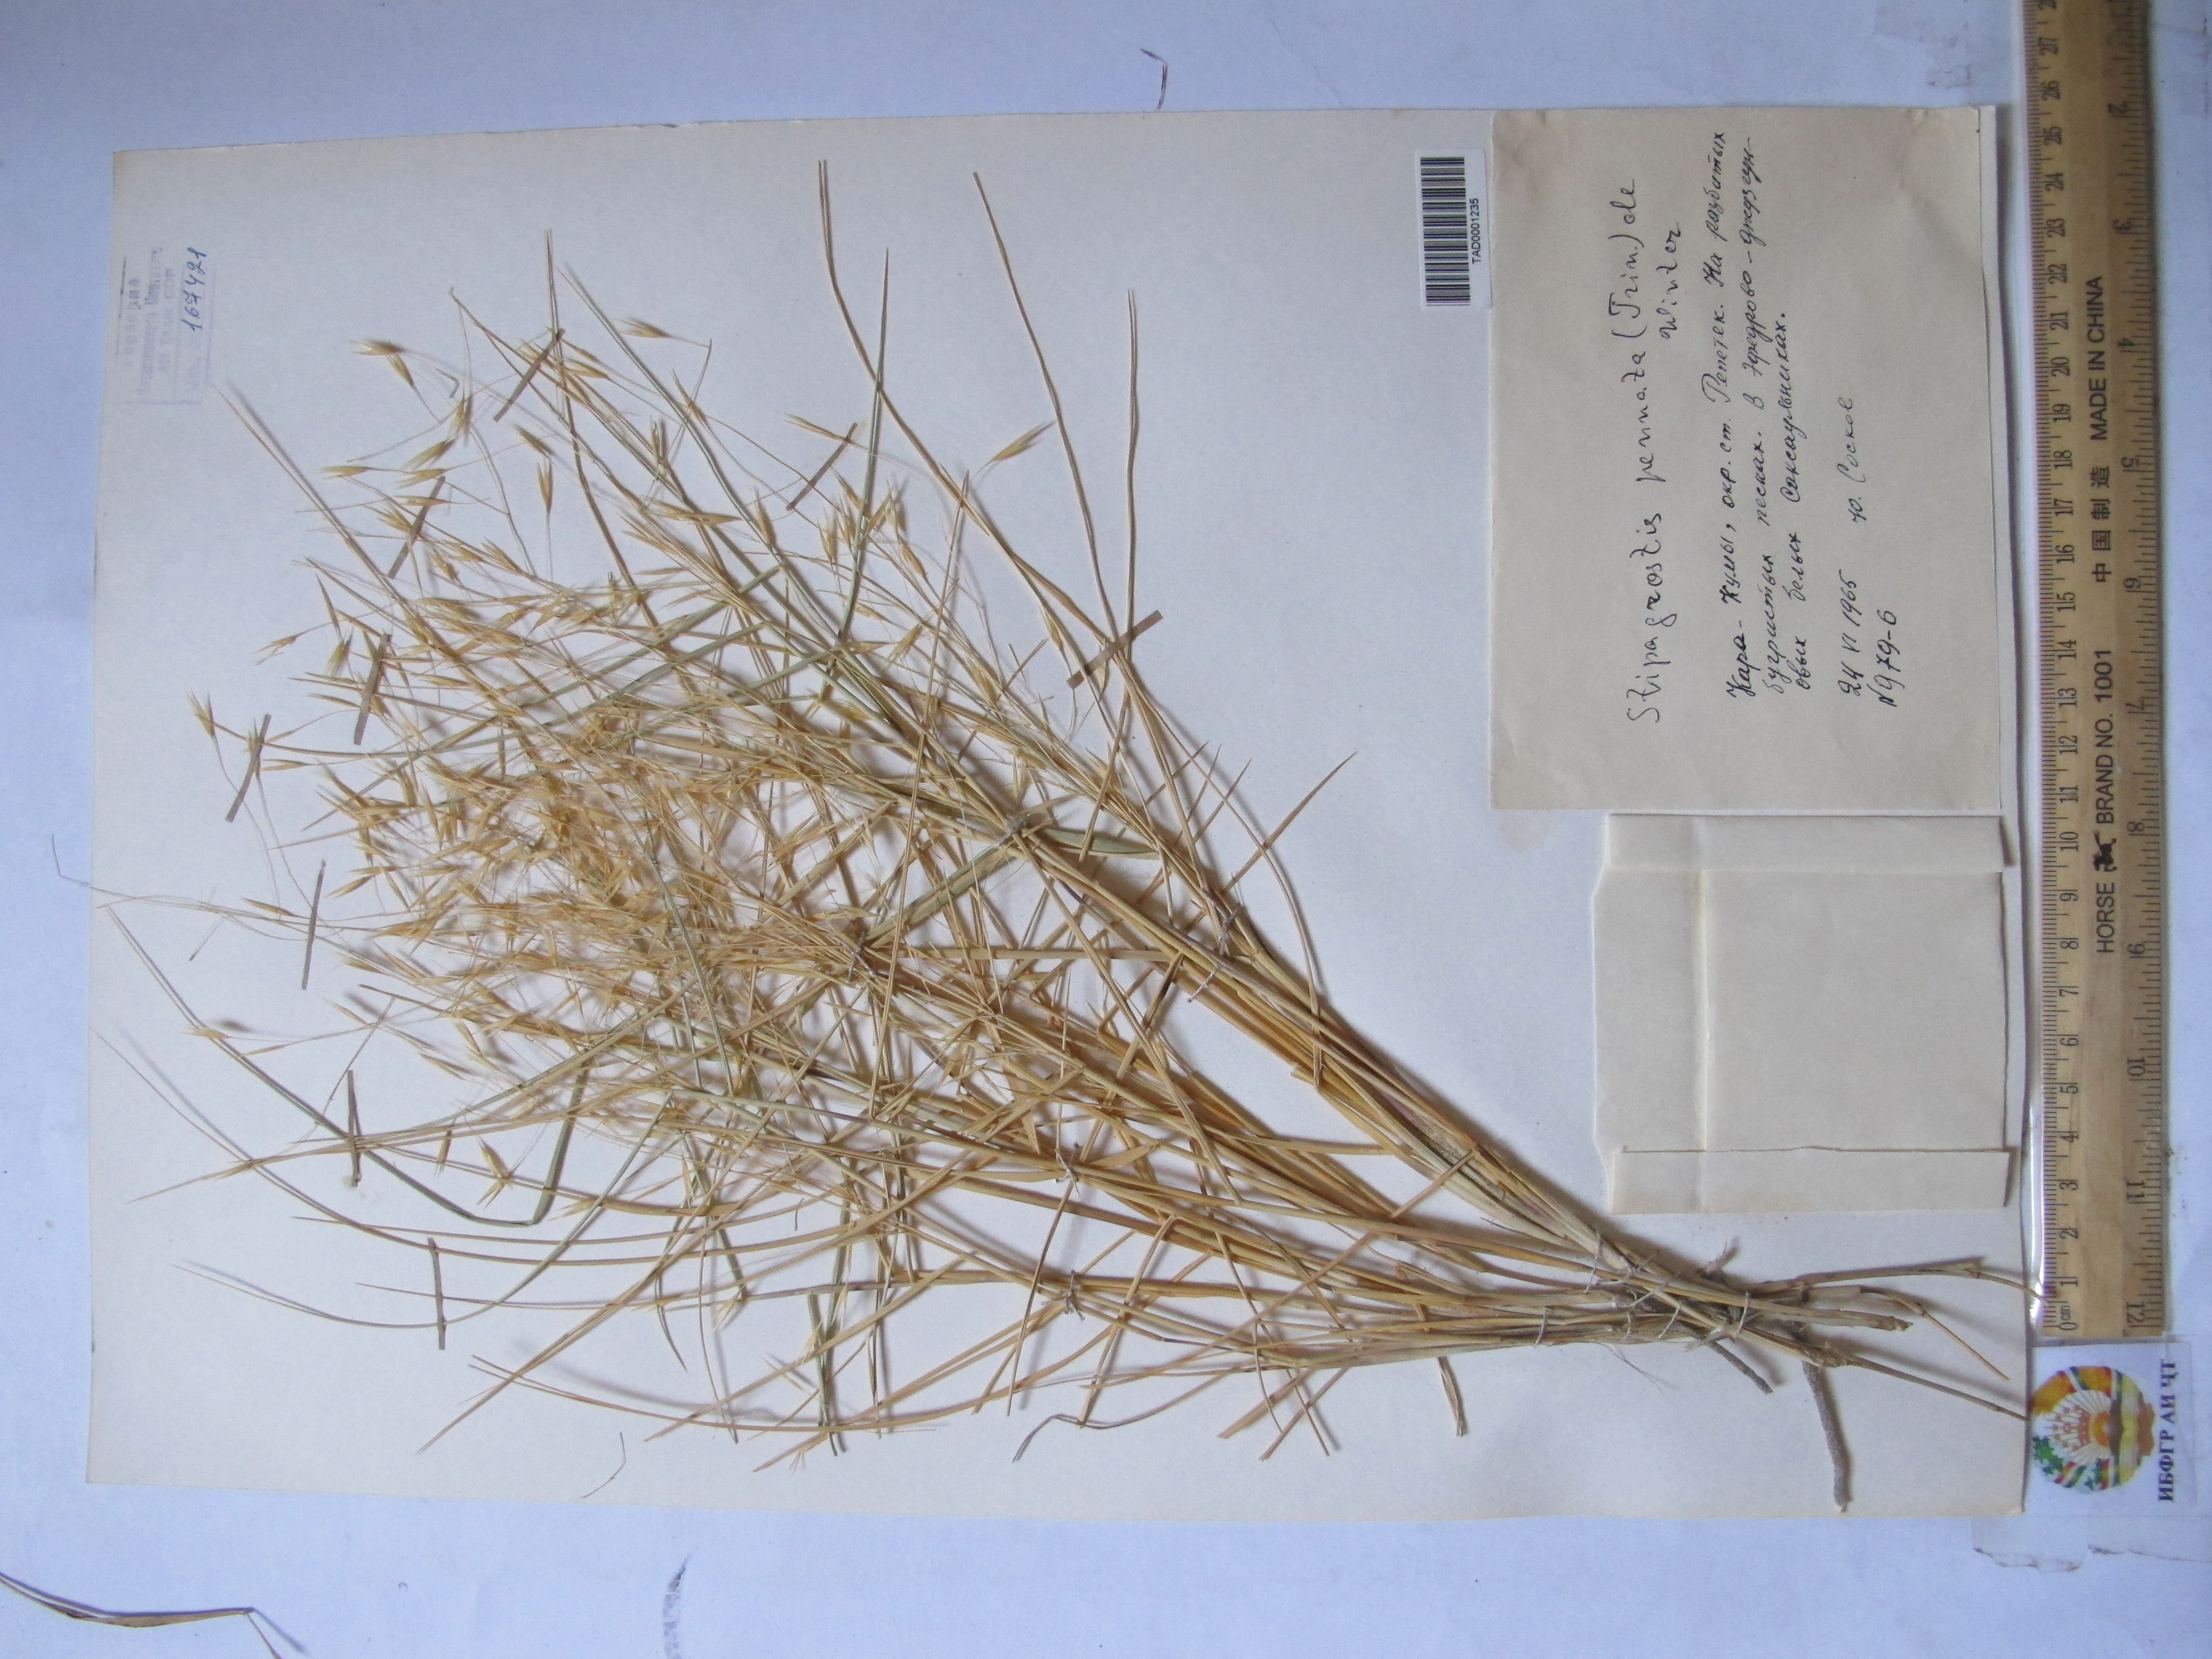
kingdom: Plantae
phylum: Tracheophyta
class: Liliopsida
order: Poales
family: Poaceae
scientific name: Poaceae
